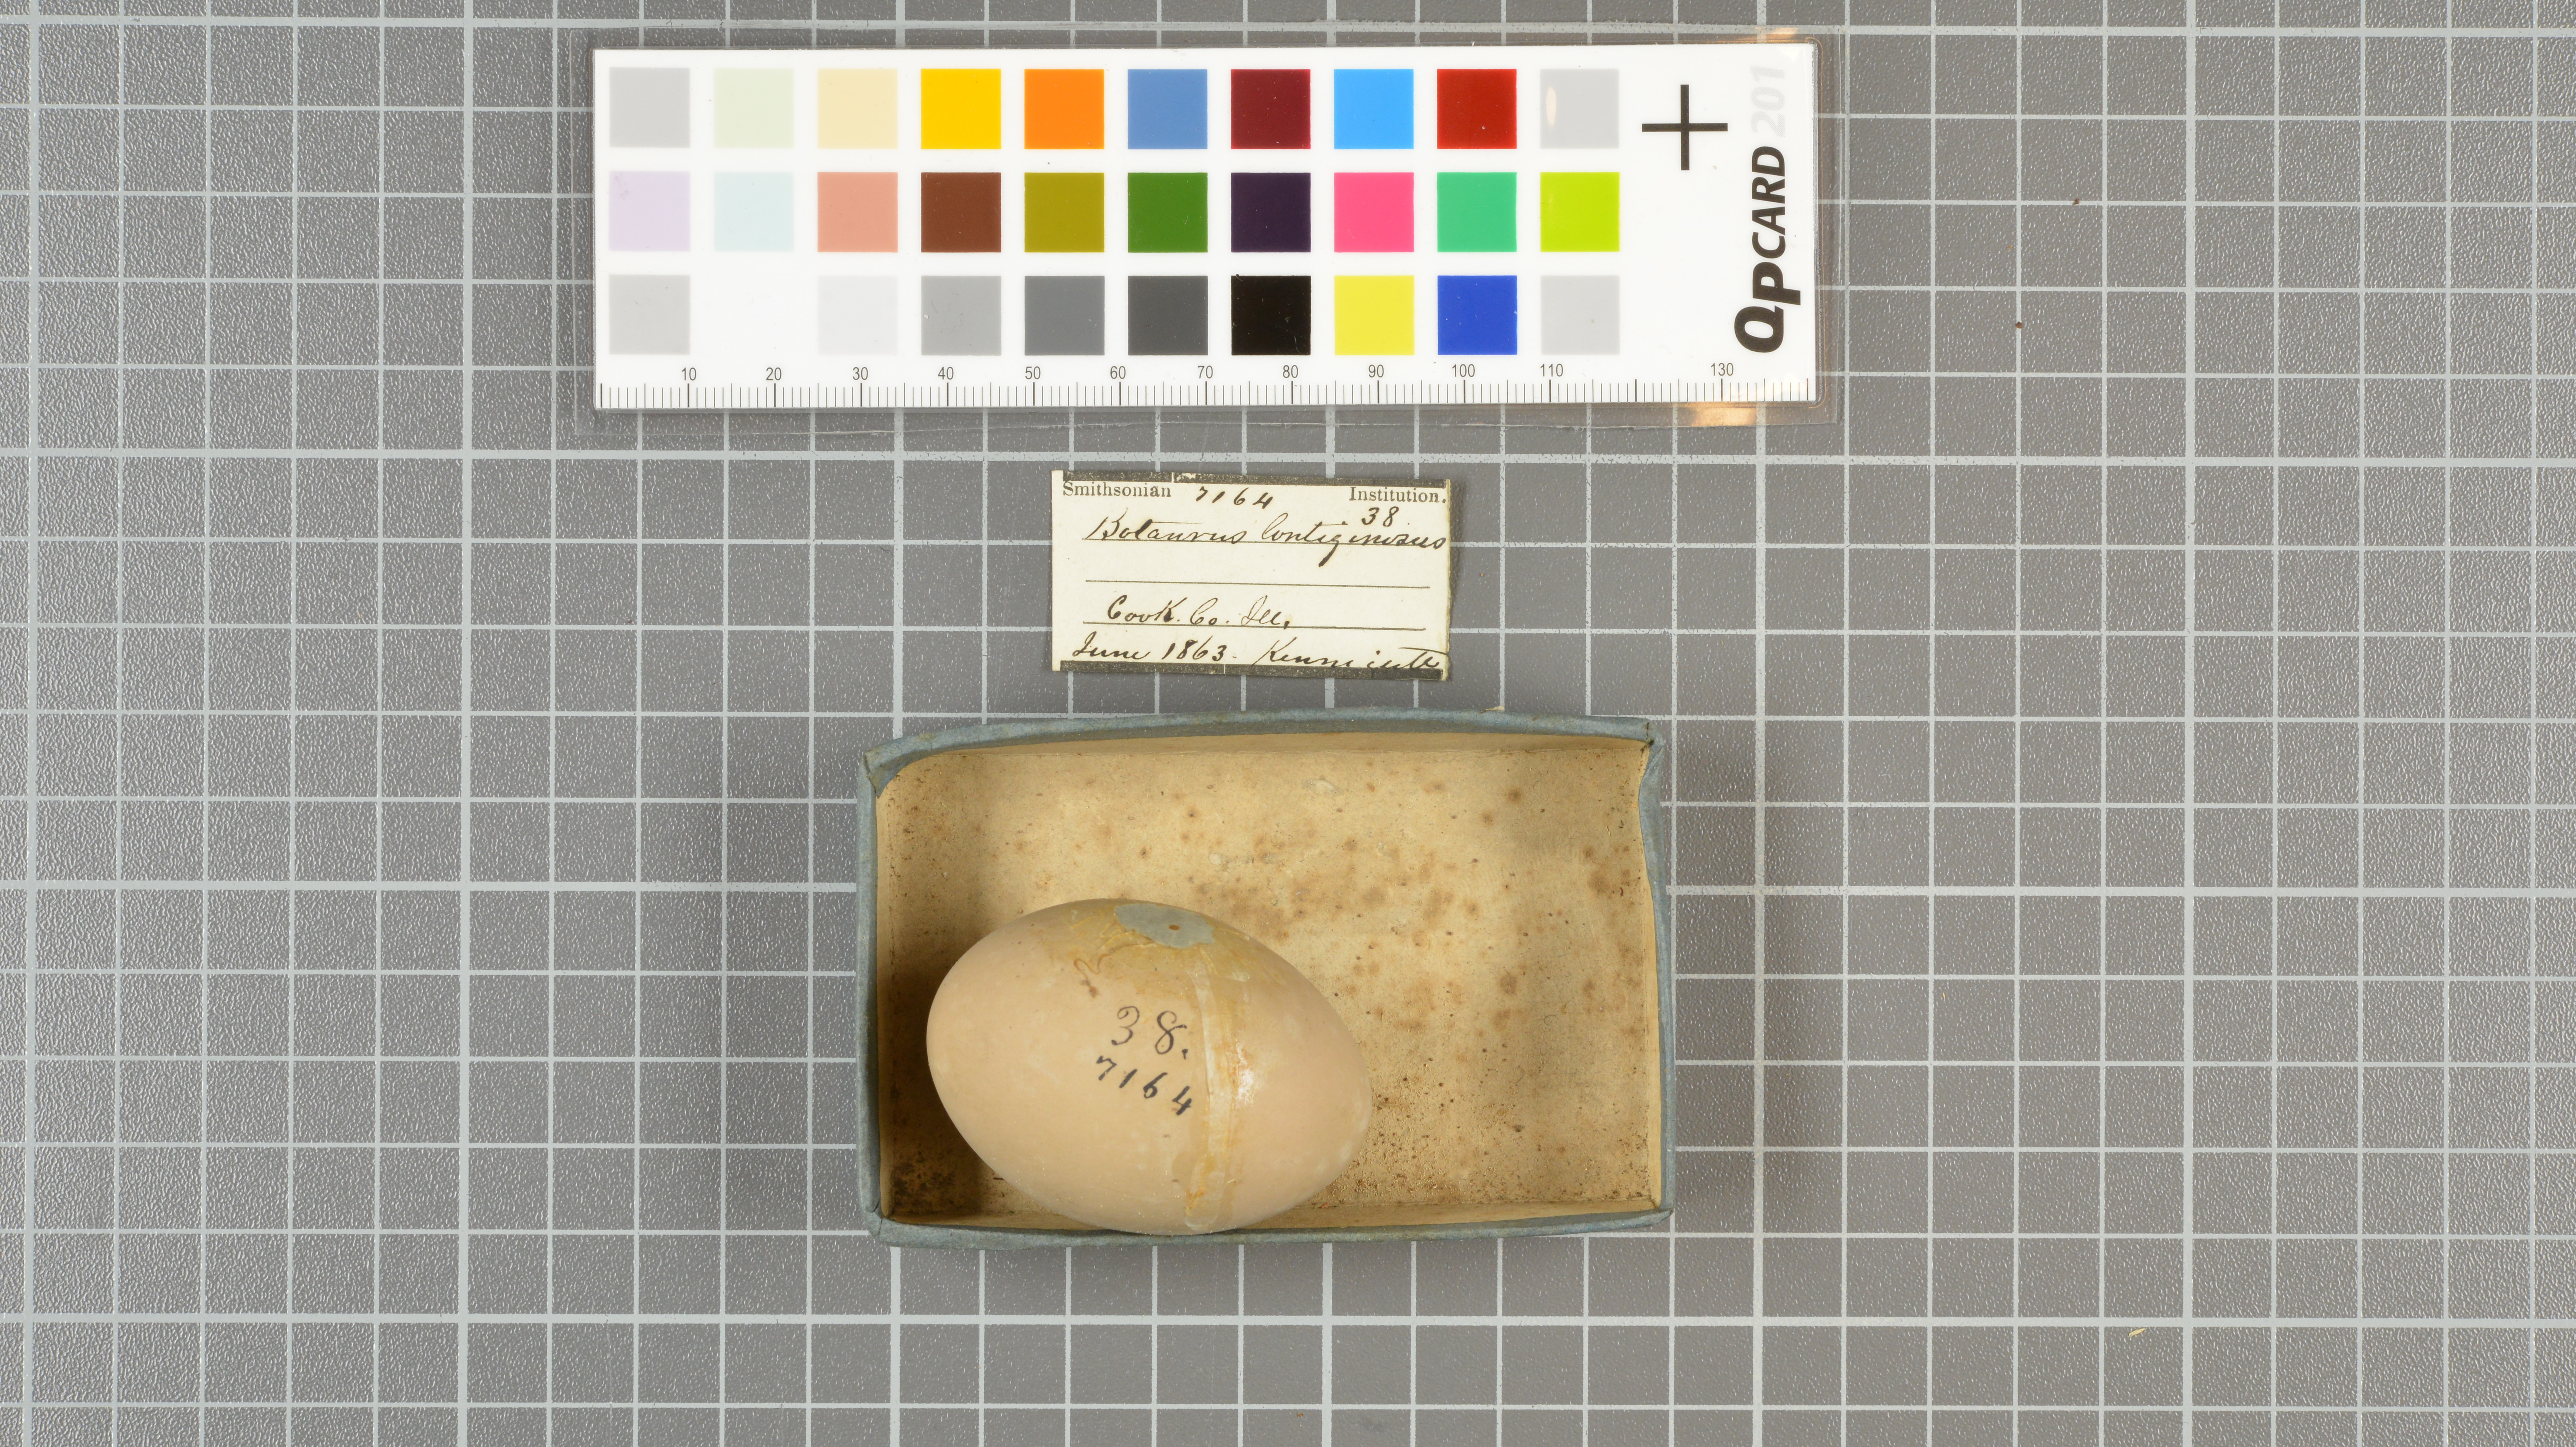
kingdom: Animalia
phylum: Chordata
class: Aves
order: Pelecaniformes
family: Ardeidae
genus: Botaurus
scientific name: Botaurus lentiginosus
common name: American bittern
